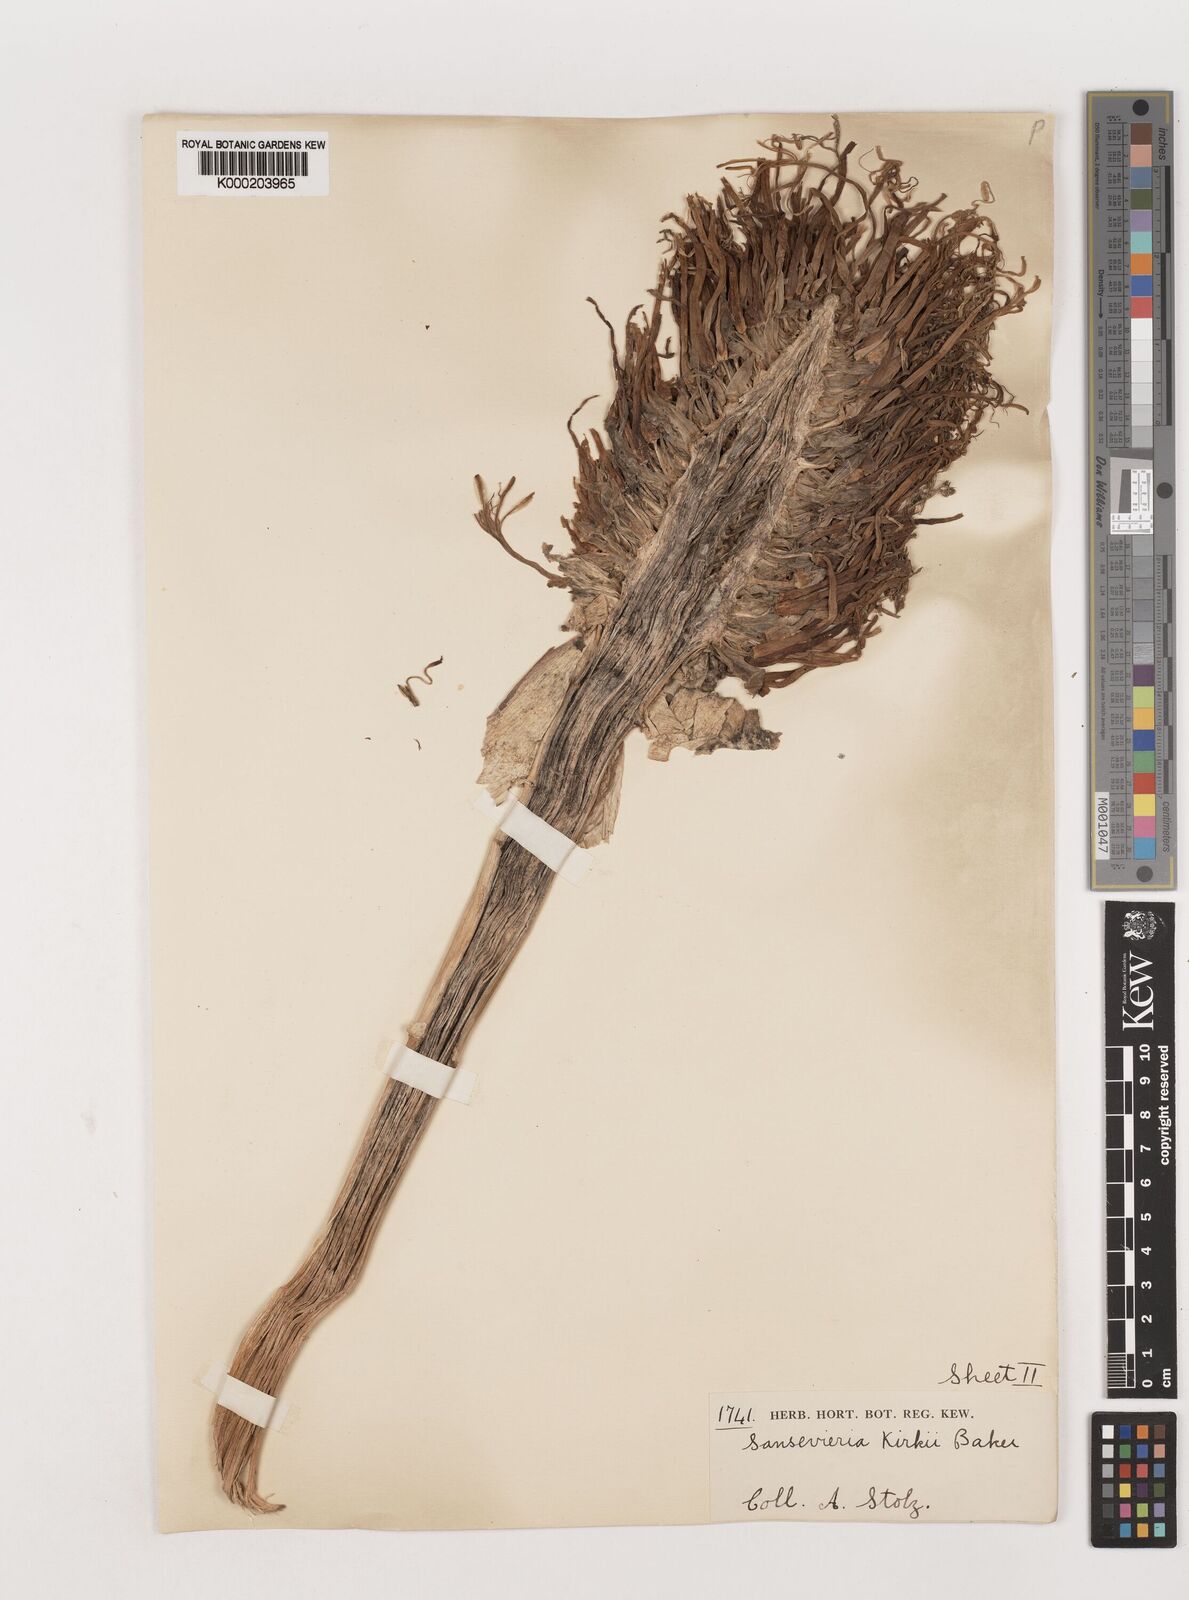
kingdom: Plantae
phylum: Tracheophyta
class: Liliopsida
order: Asparagales
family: Asparagaceae
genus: Dracaena
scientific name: Dracaena testudinea
